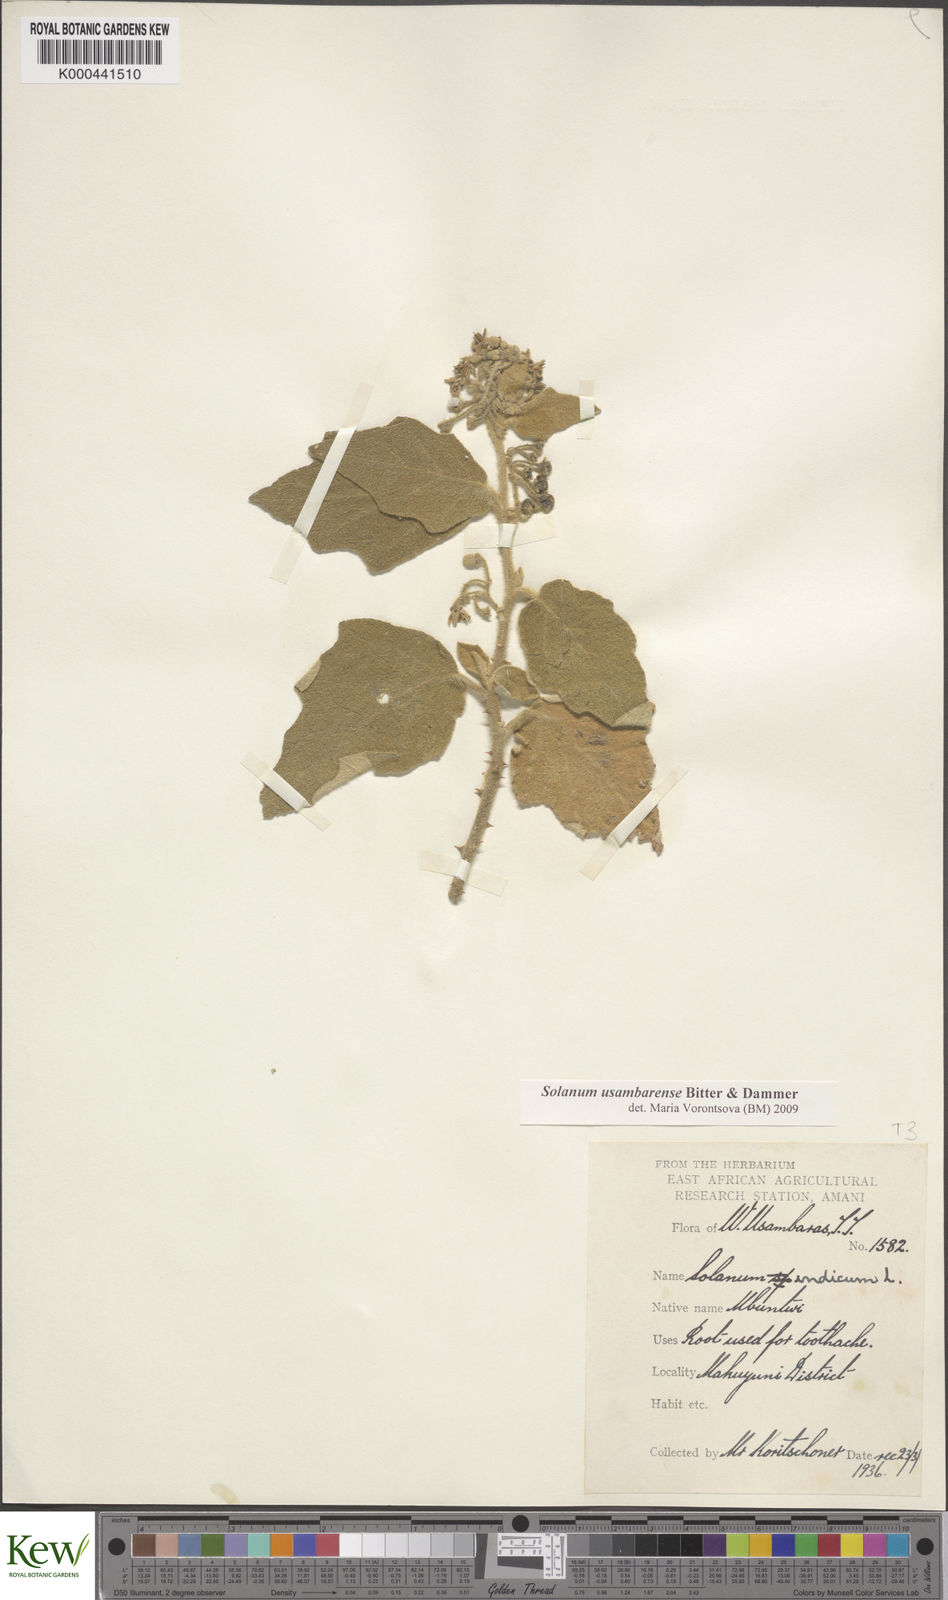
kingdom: Plantae
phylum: Tracheophyta
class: Magnoliopsida
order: Solanales
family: Solanaceae
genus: Solanum
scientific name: Solanum usambarense
